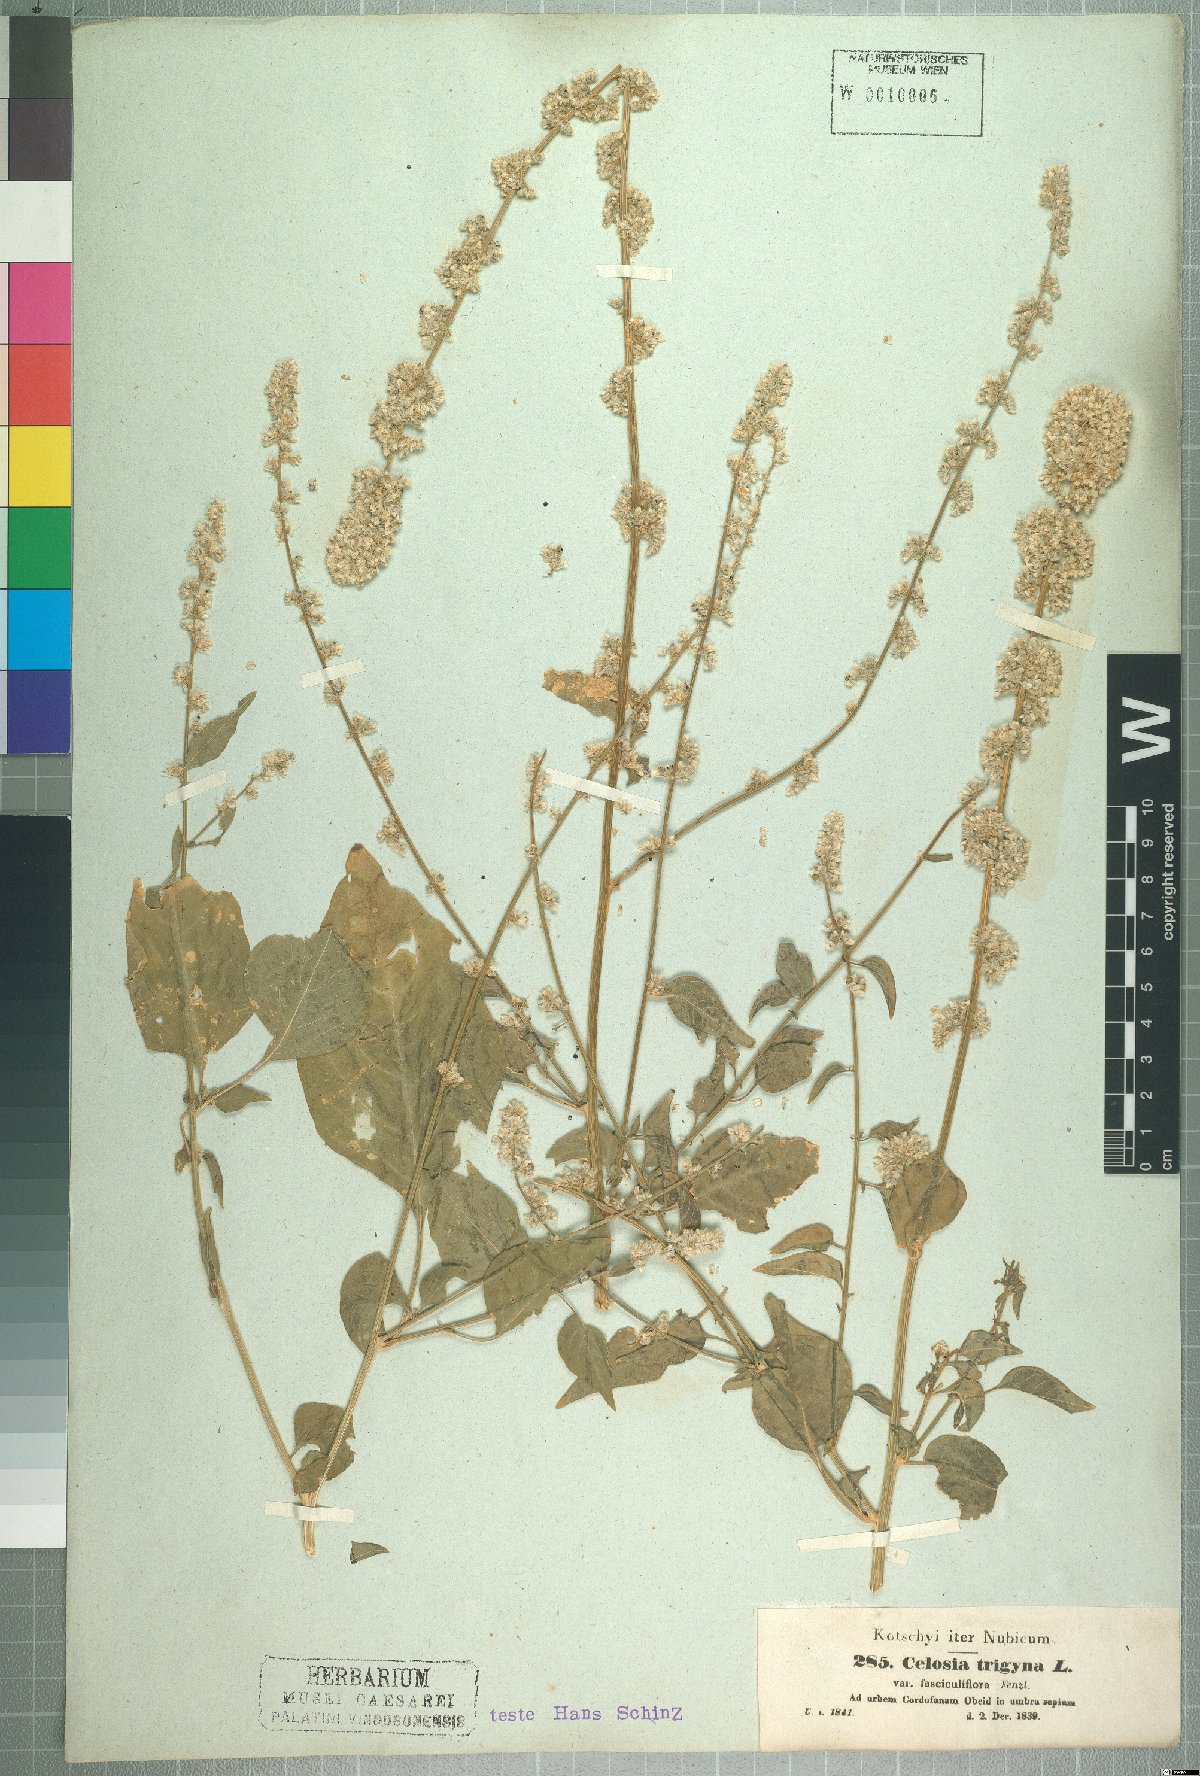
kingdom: Plantae
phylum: Tracheophyta
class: Magnoliopsida
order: Caryophyllales
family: Amaranthaceae
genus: Celosia
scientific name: Celosia trigyna
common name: Woolflower
